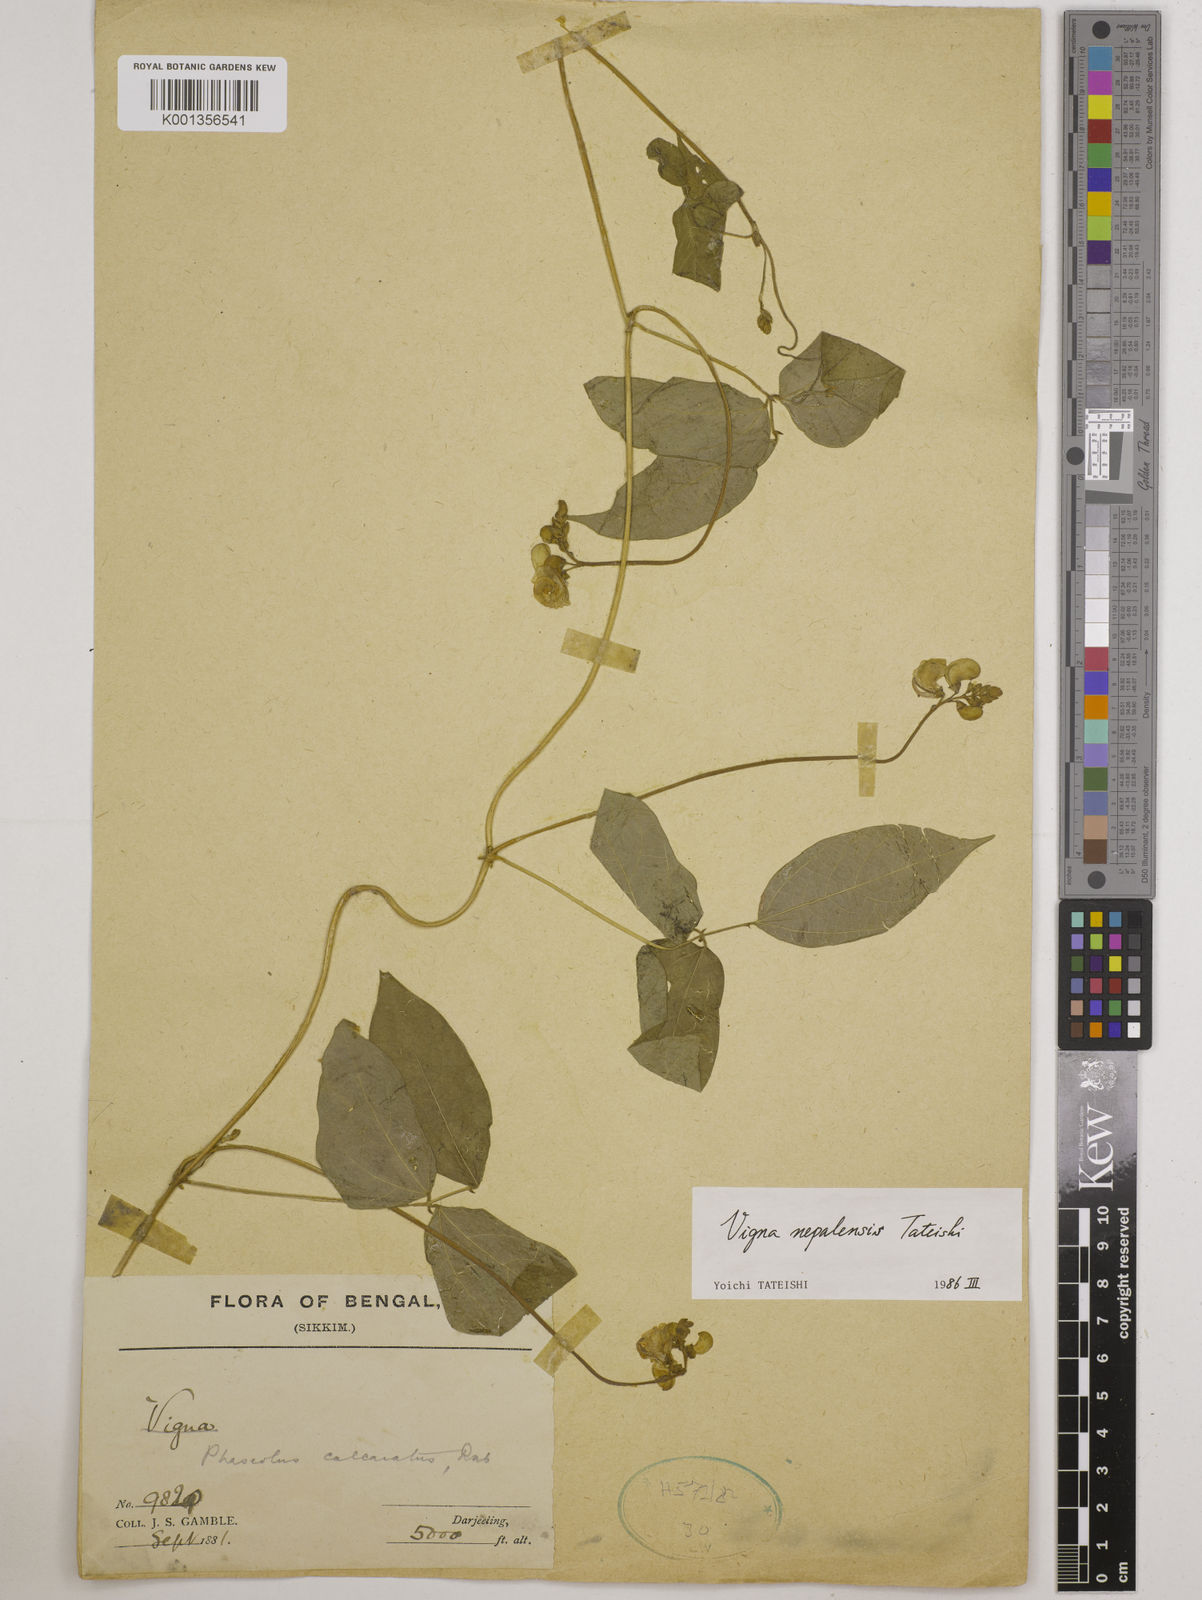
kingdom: Plantae
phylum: Tracheophyta
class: Magnoliopsida
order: Fabales
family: Fabaceae
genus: Vigna
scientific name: Vigna
